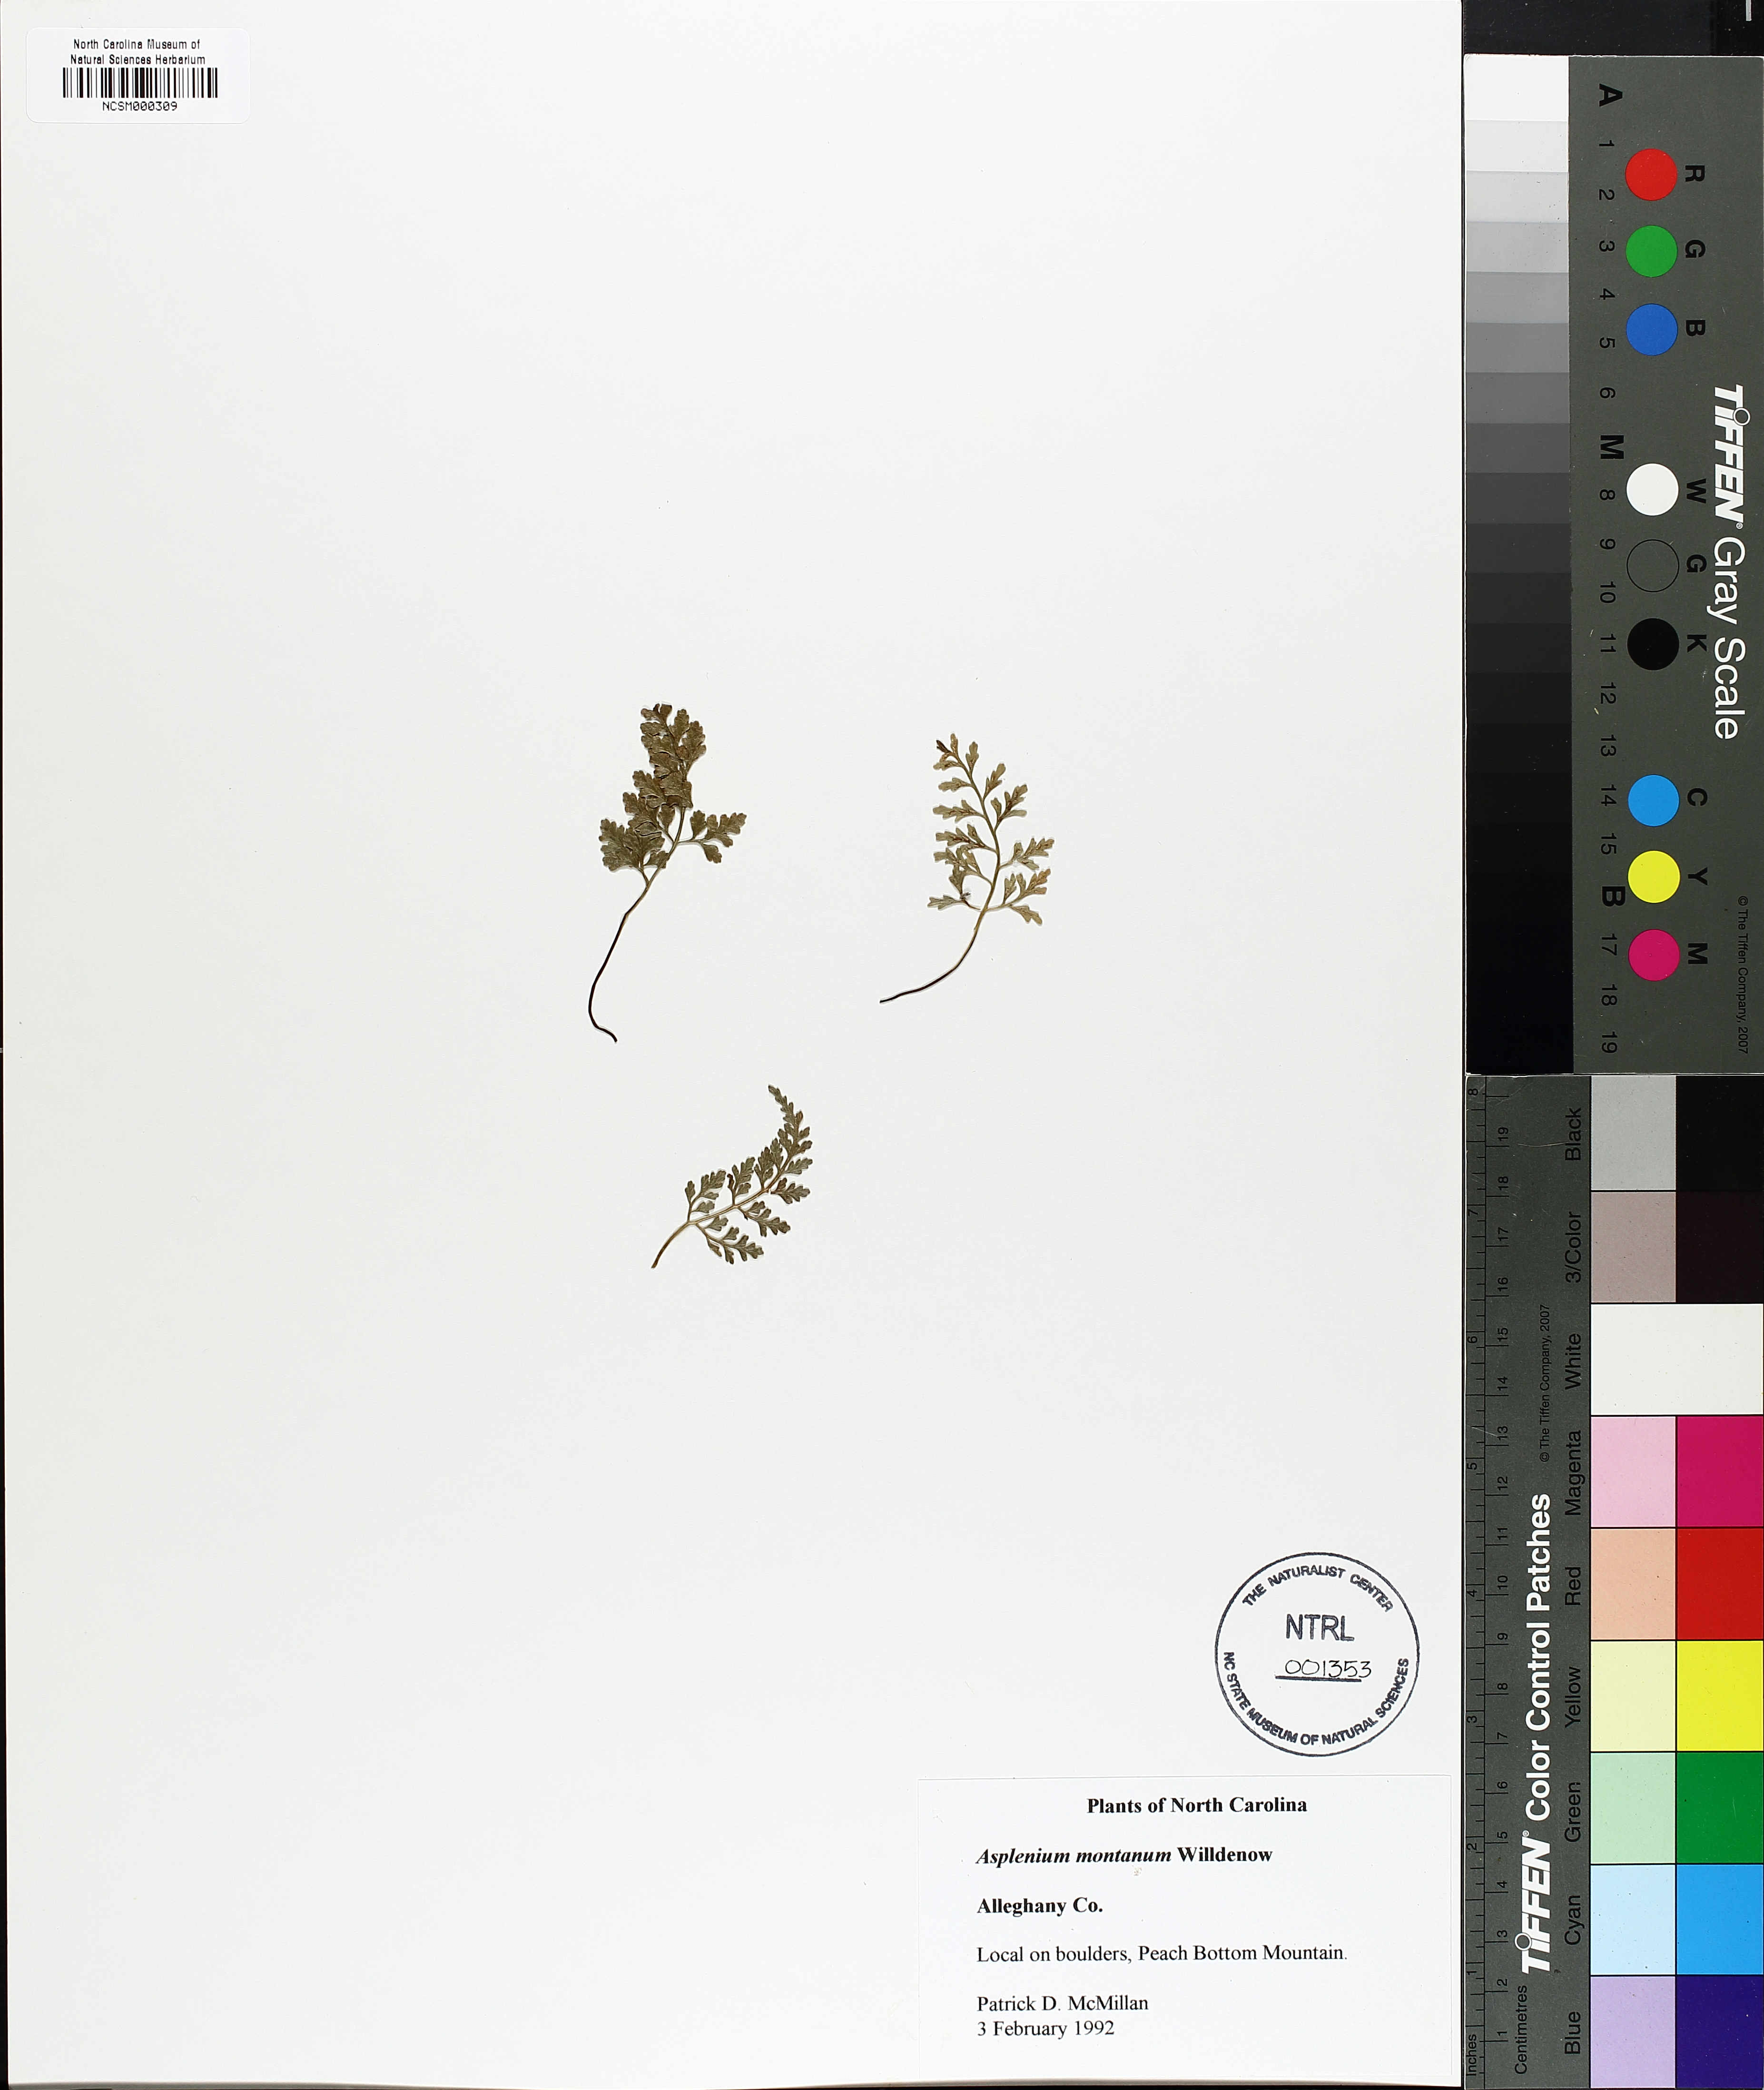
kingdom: Plantae
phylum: Tracheophyta
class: Polypodiopsida
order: Polypodiales
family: Aspleniaceae
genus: Asplenium
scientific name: Asplenium montanum
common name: Mountain spleenwort
